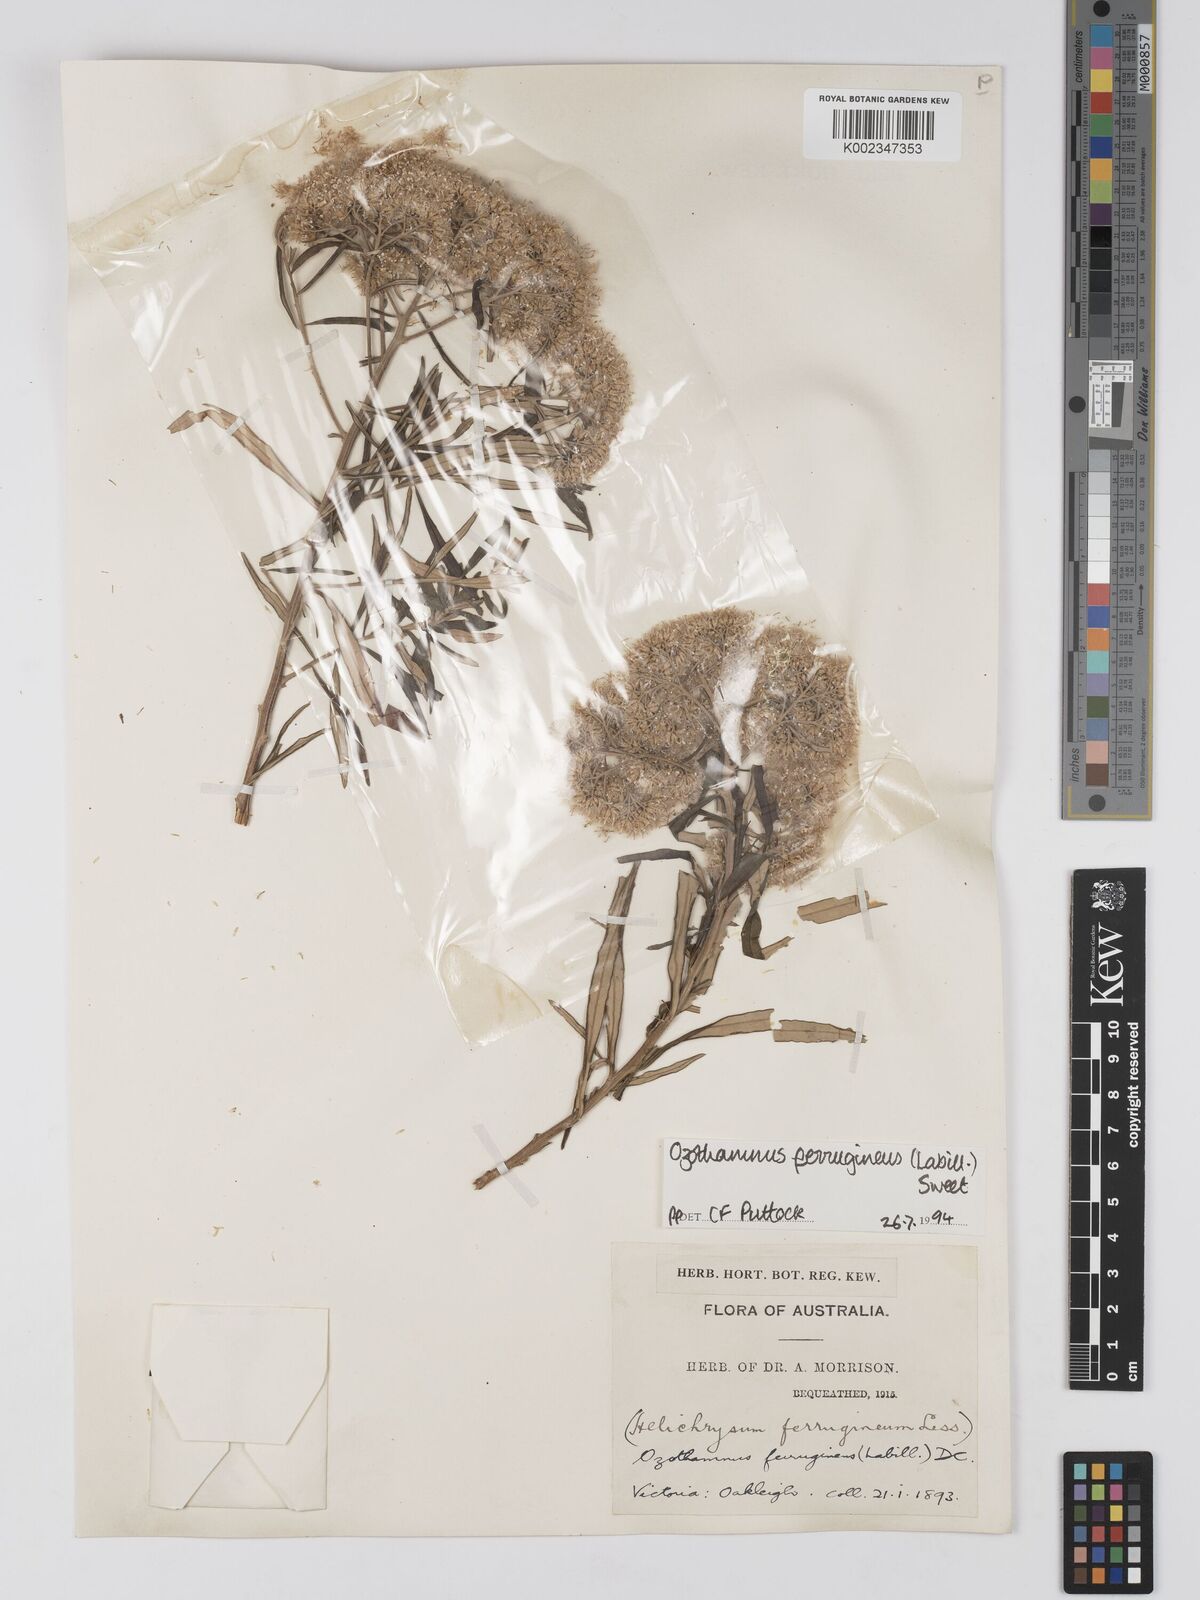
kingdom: Plantae
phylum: Tracheophyta
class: Magnoliopsida
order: Asterales
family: Asteraceae
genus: Ozothamnus
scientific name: Ozothamnus ferrugineus
